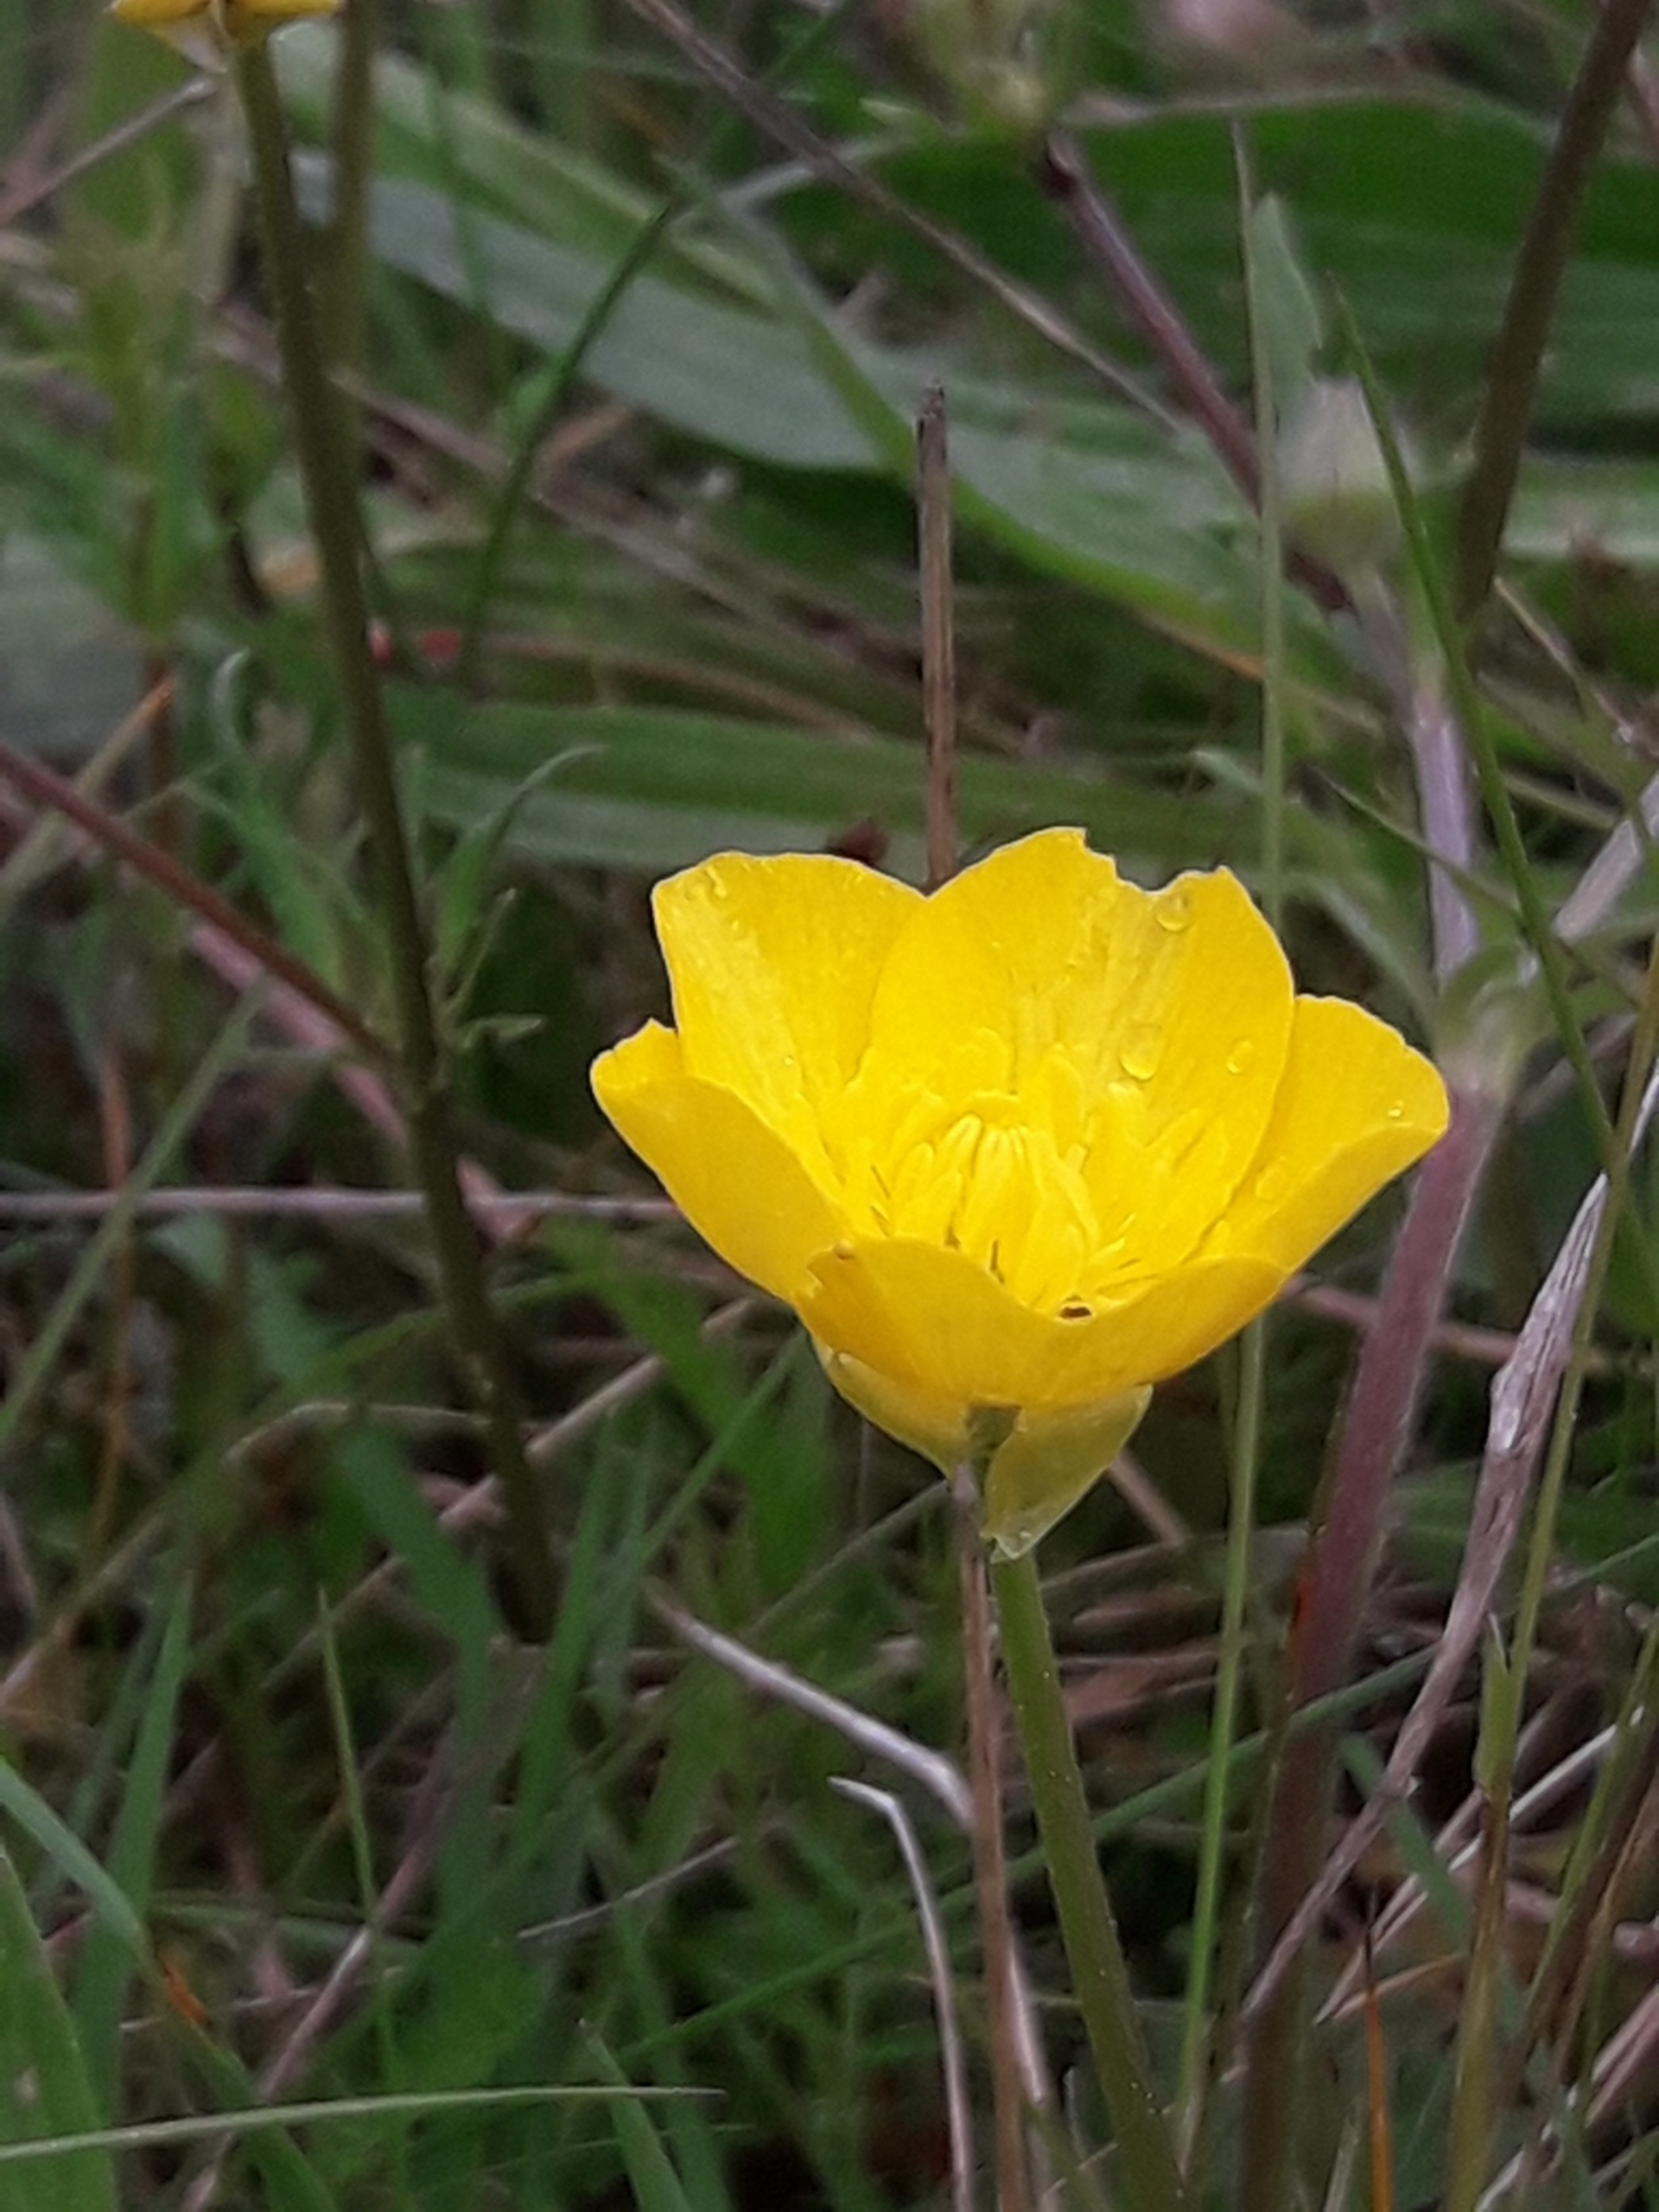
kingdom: Plantae
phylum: Tracheophyta
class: Magnoliopsida
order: Ranunculales
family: Ranunculaceae
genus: Ranunculus
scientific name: Ranunculus bulbosus
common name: Knold-ranunkel
